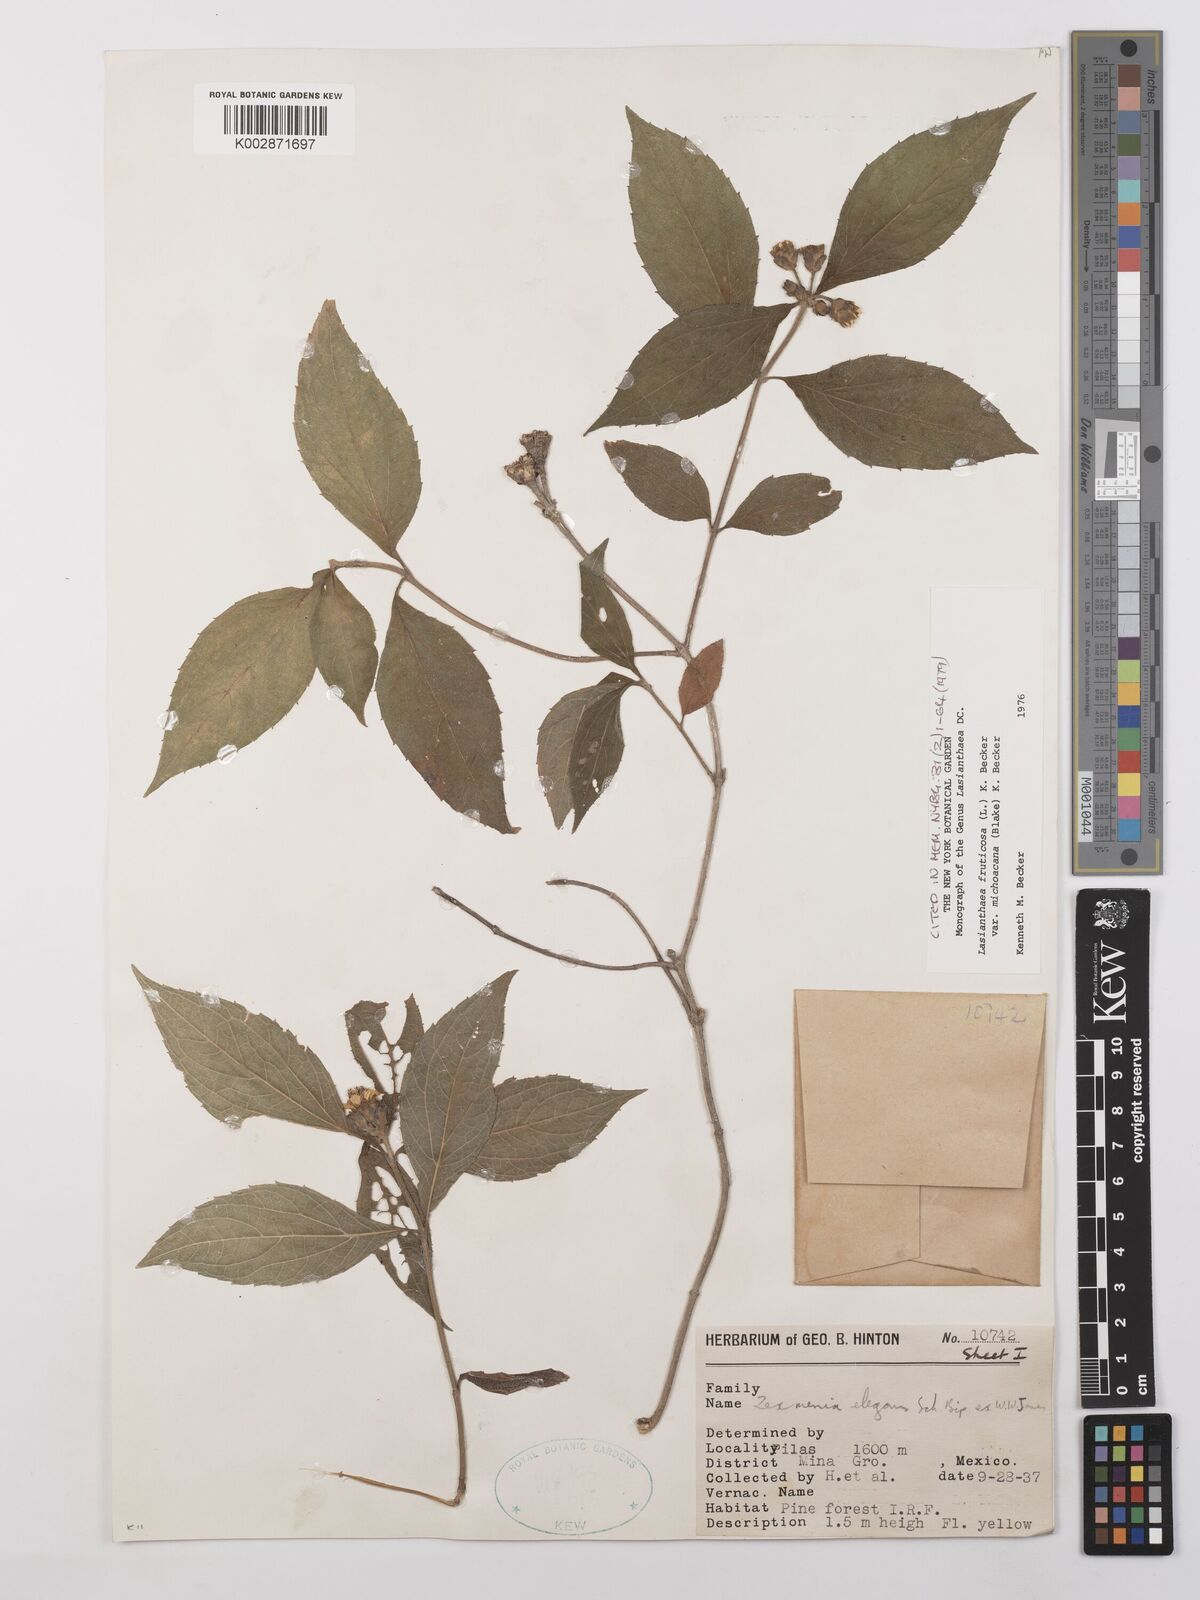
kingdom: Plantae
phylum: Tracheophyta
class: Magnoliopsida
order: Asterales
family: Asteraceae
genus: Lasianthaea
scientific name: Lasianthaea fruticosa
